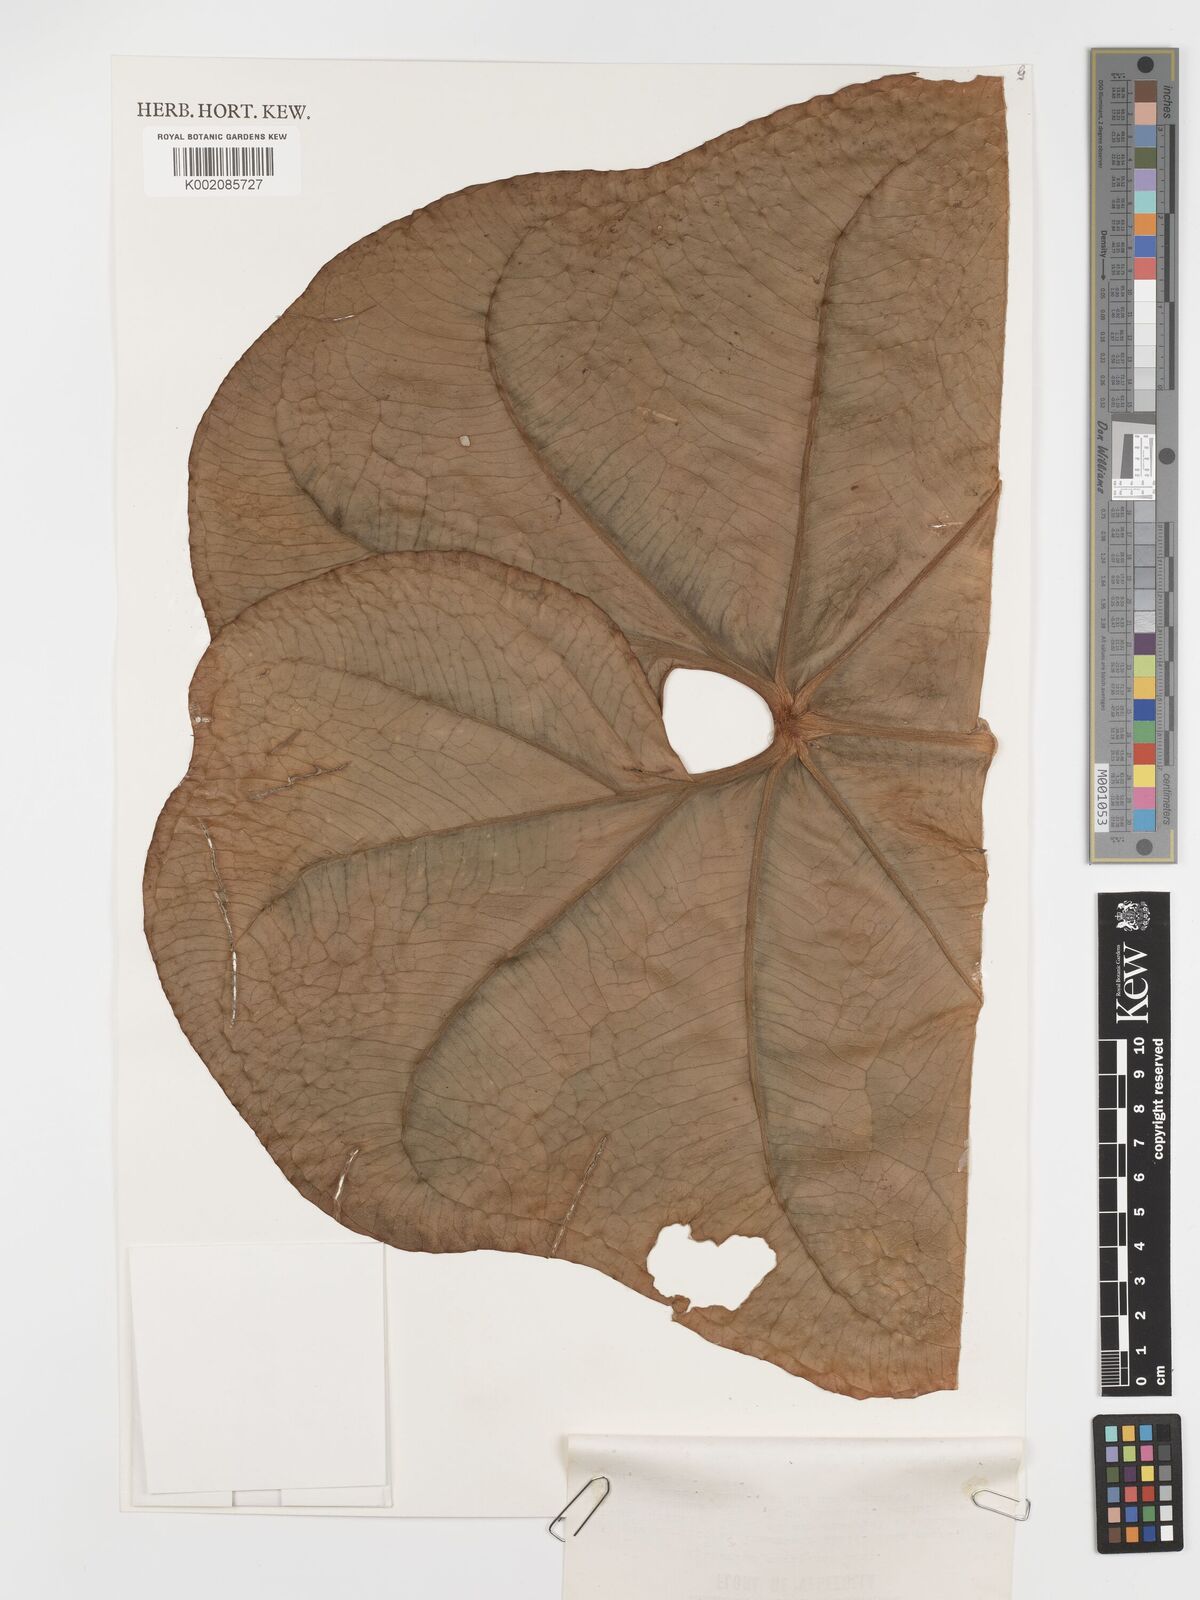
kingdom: Plantae
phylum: Tracheophyta
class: Liliopsida
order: Alismatales
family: Araceae
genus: Anthurium
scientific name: Anthurium caripense
